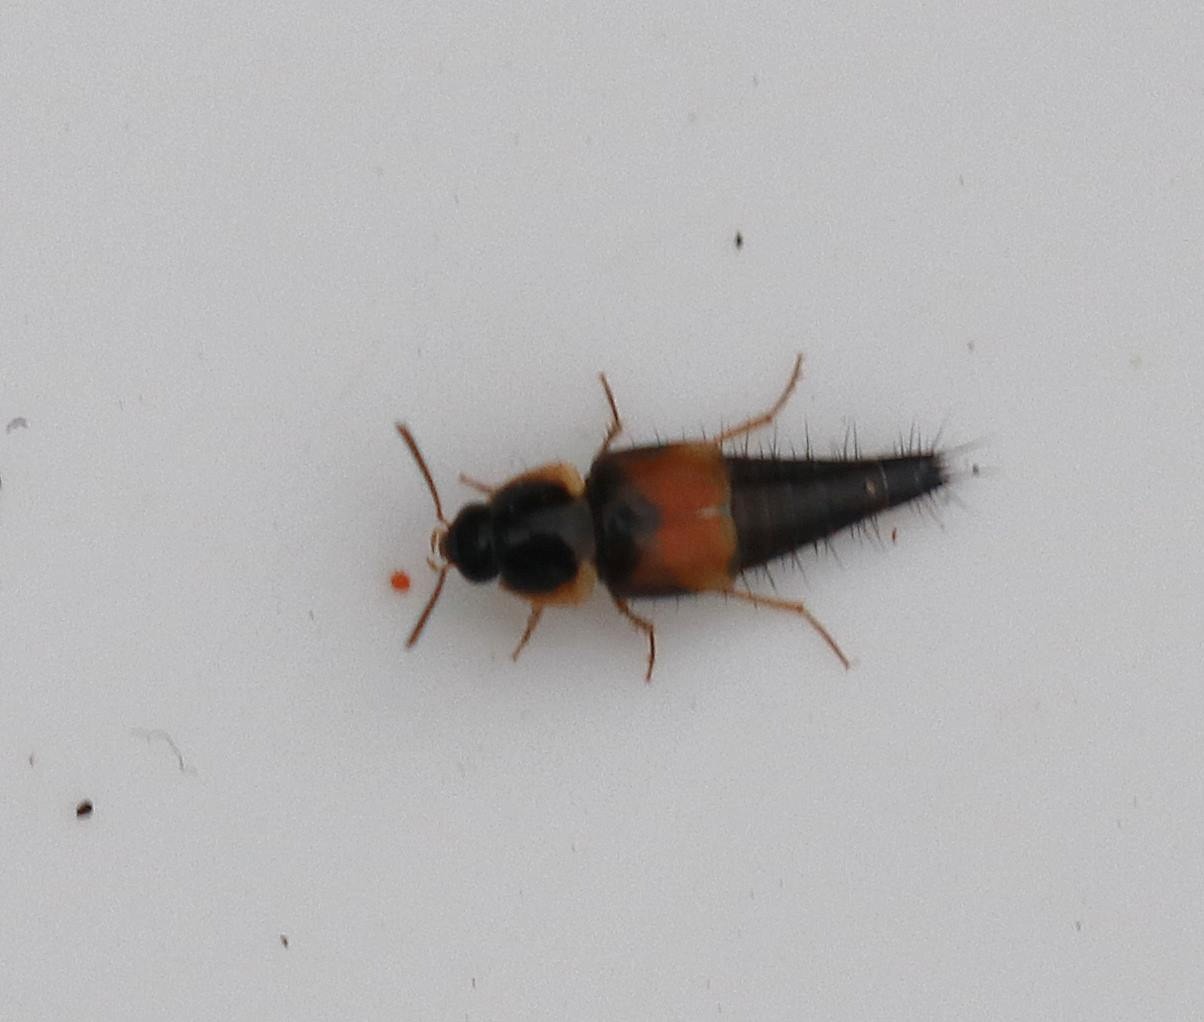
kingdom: Animalia
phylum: Arthropoda
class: Insecta
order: Coleoptera
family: Staphylinidae
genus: Tachyporus
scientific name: Tachyporus hypnorum
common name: Sortplettet agerrovbille
